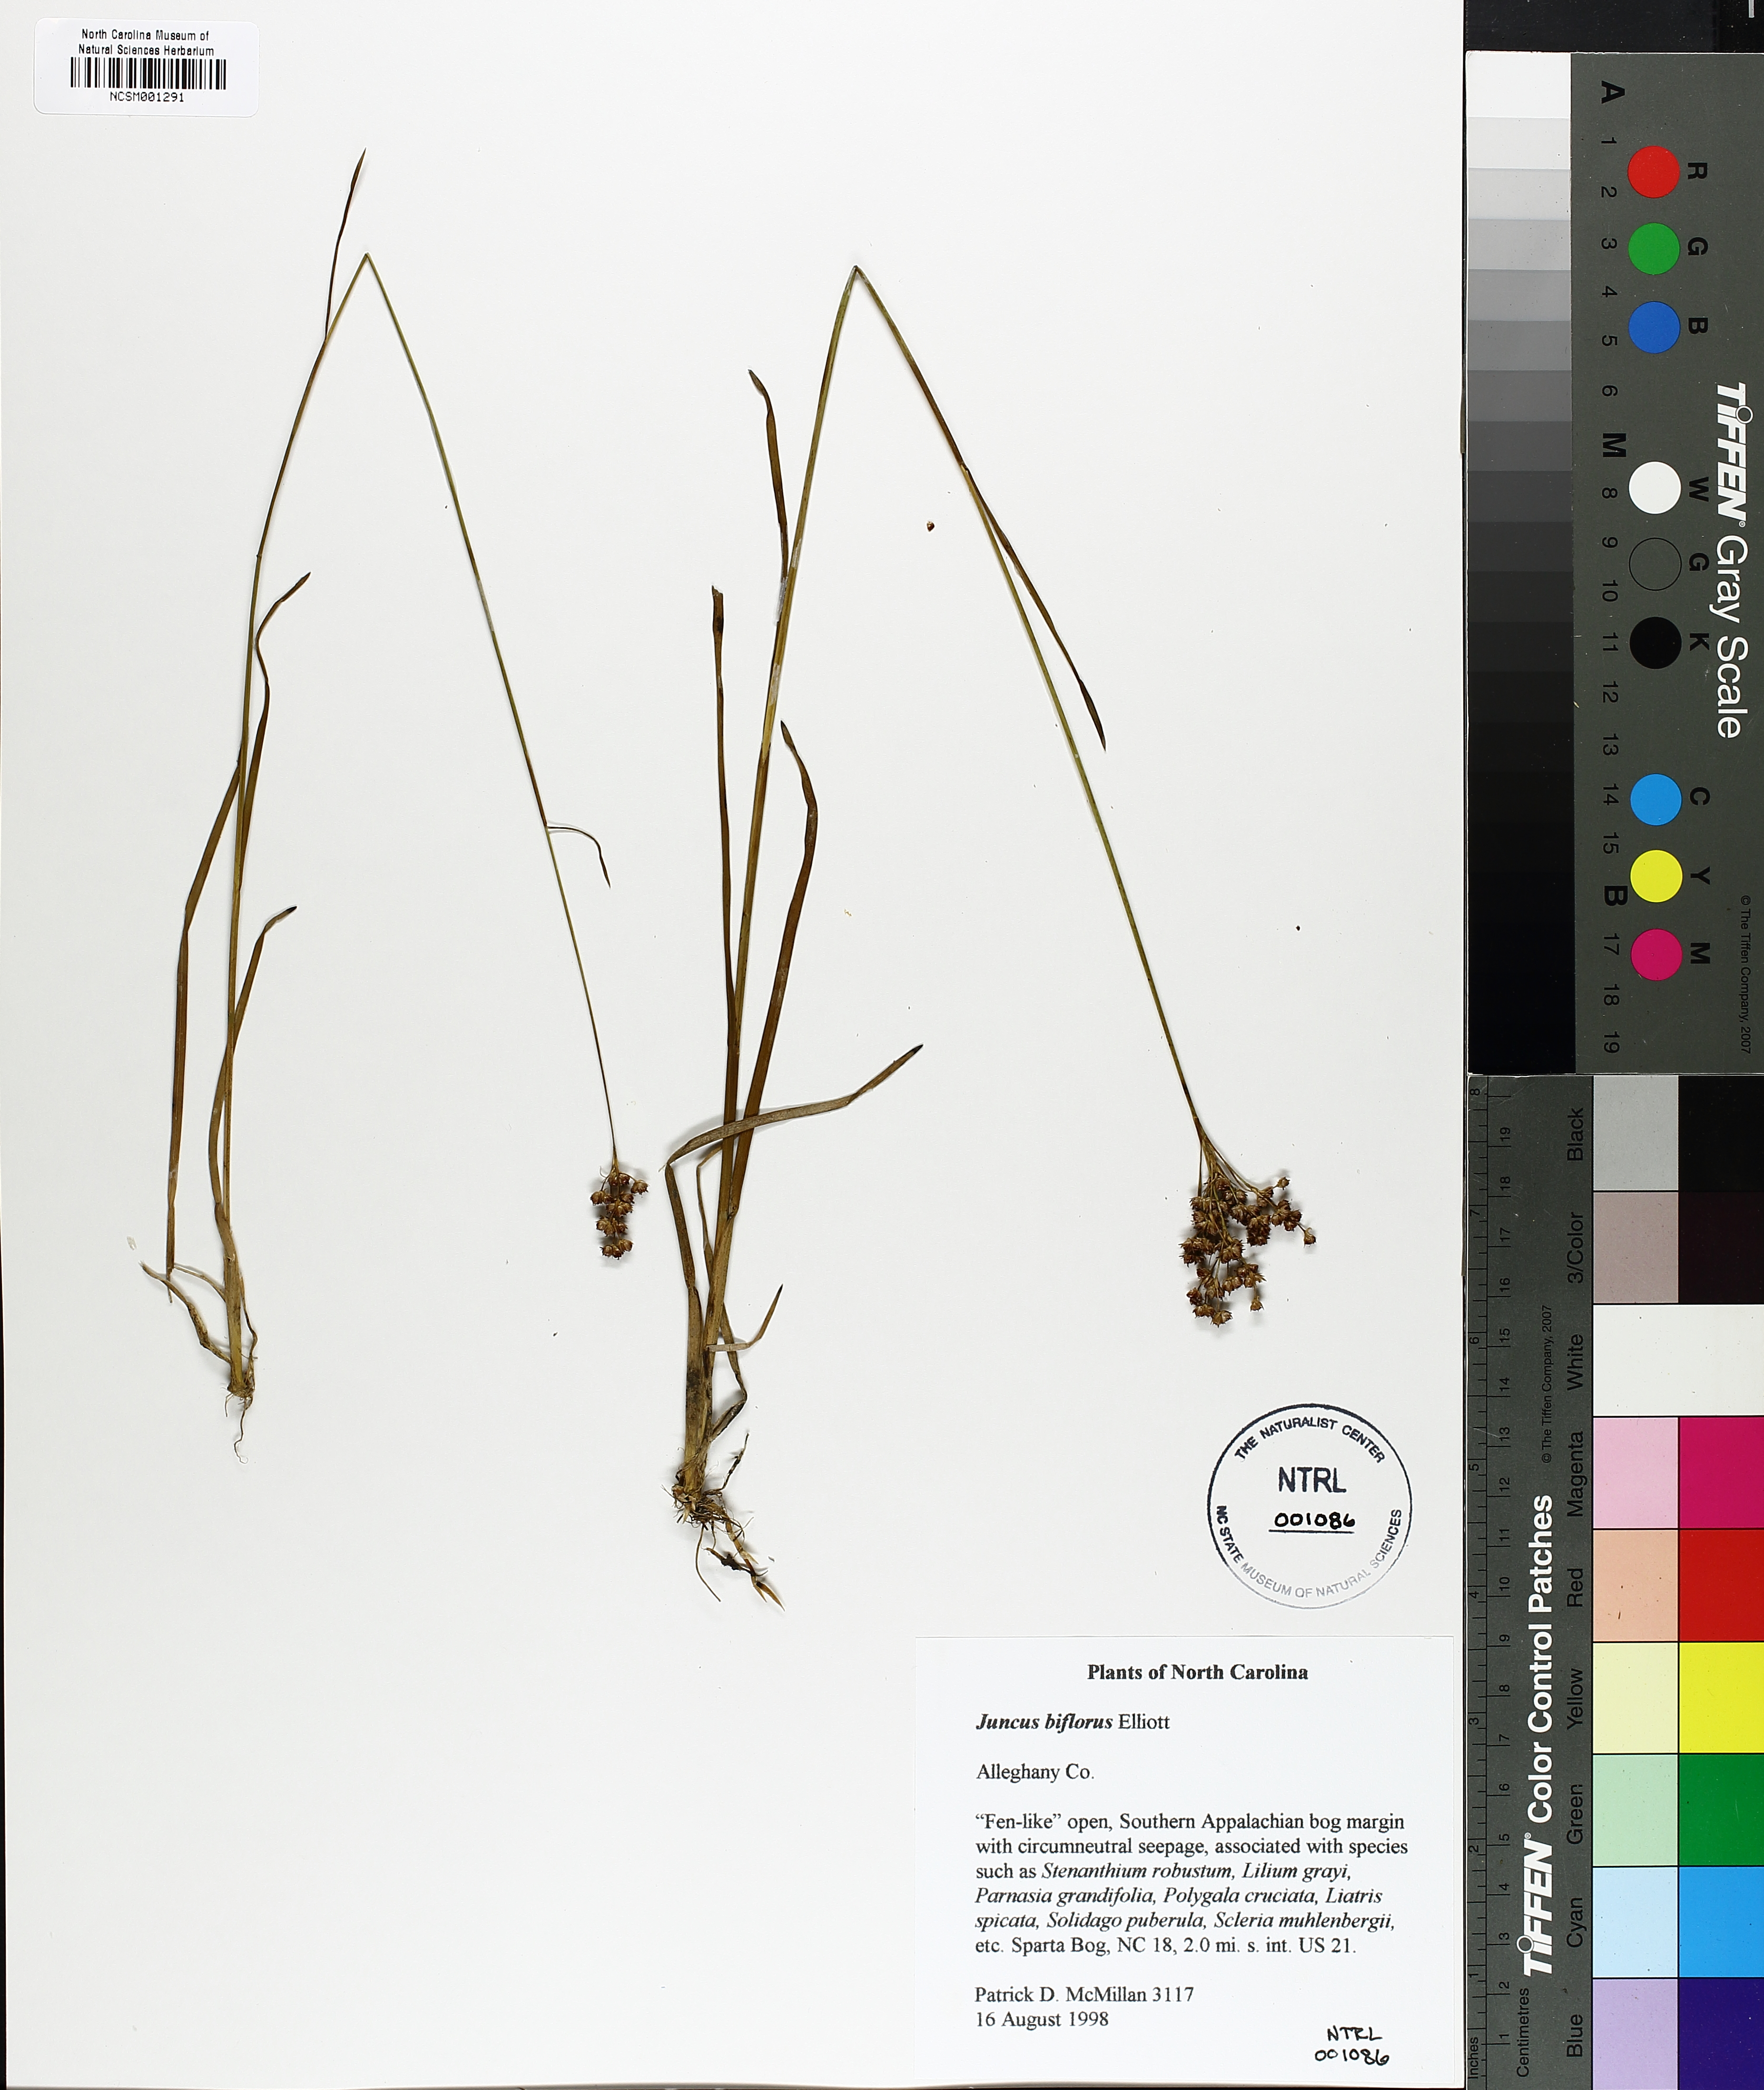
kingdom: Plantae
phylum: Tracheophyta
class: Liliopsida
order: Poales
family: Juncaceae
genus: Juncus
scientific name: Juncus biflorus
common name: Two-flowered rush
